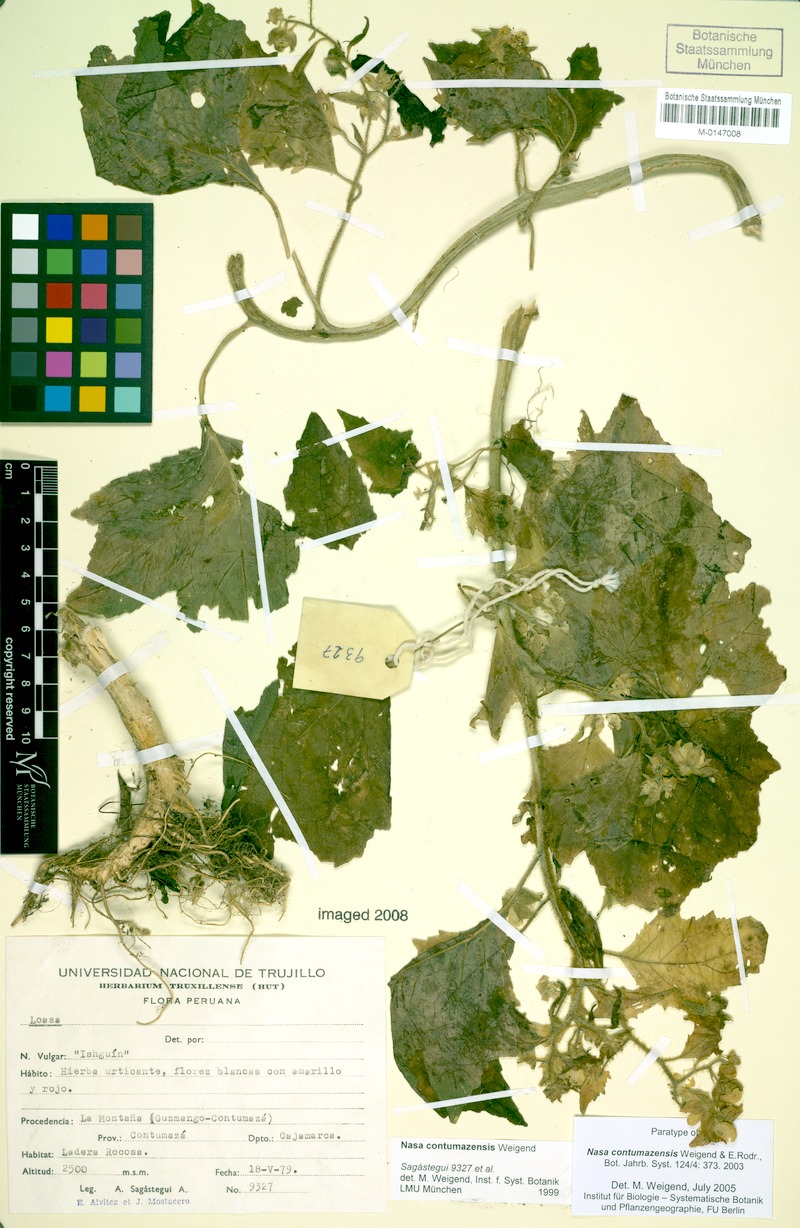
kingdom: Plantae
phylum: Tracheophyta
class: Magnoliopsida
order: Cornales
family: Loasaceae
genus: Nasa
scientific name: Nasa contumazensis
